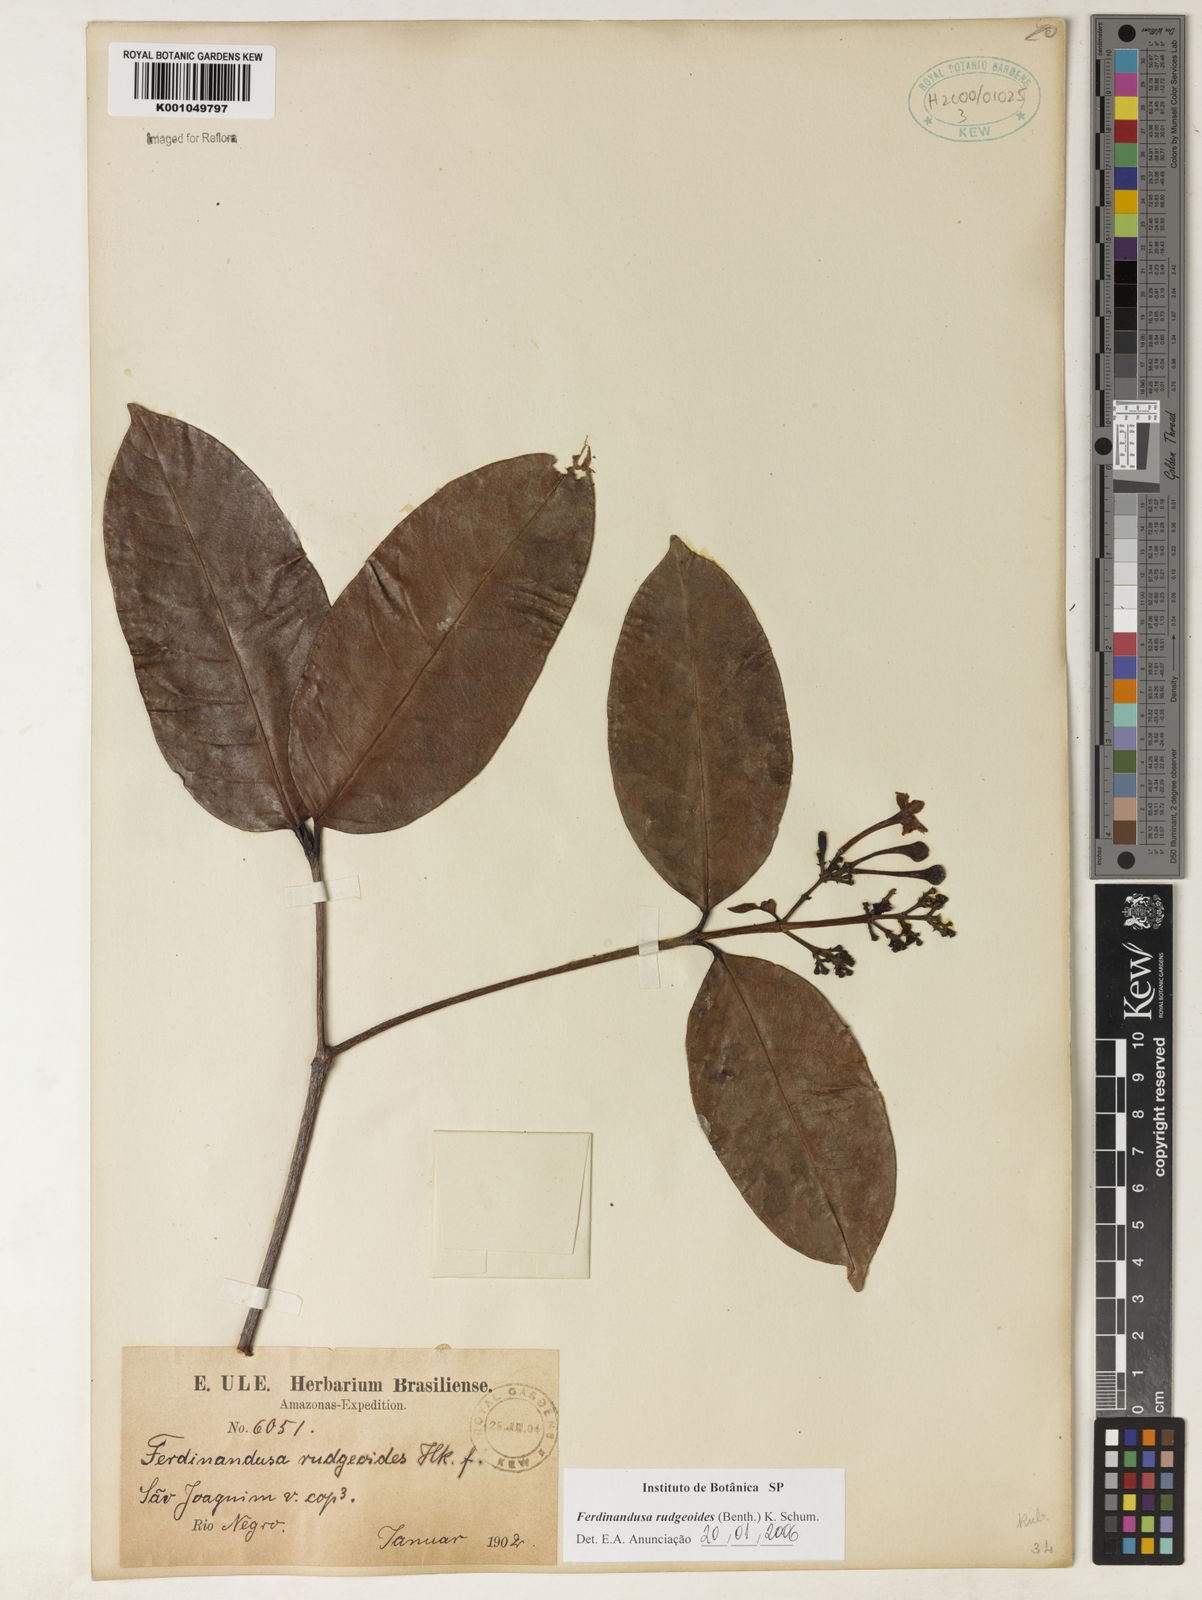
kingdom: Plantae
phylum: Tracheophyta
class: Magnoliopsida
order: Gentianales
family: Rubiaceae
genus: Ferdinandusa
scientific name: Ferdinandusa rudgeoides
